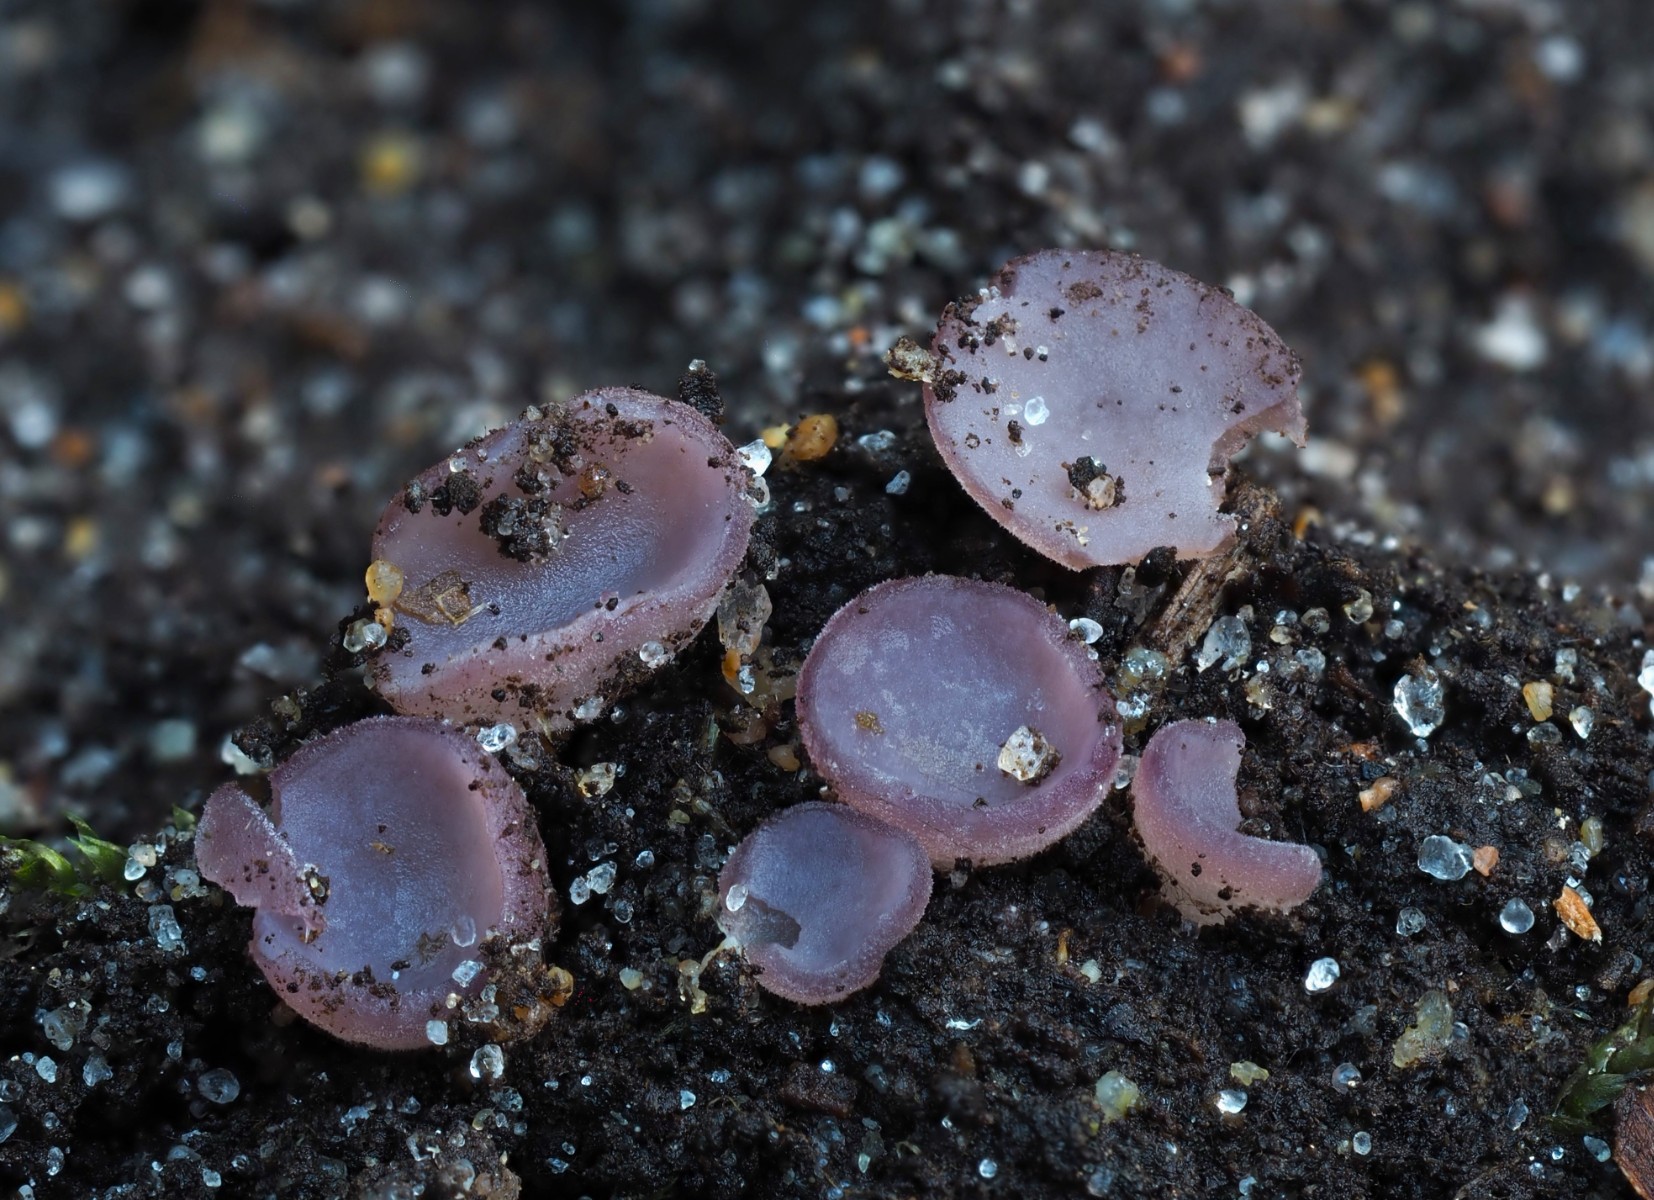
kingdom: Fungi
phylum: Ascomycota
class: Pezizomycetes
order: Pezizales
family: Pezizaceae
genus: Ionopezia
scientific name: Ionopezia gerardii
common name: tensporet bægersvamp
